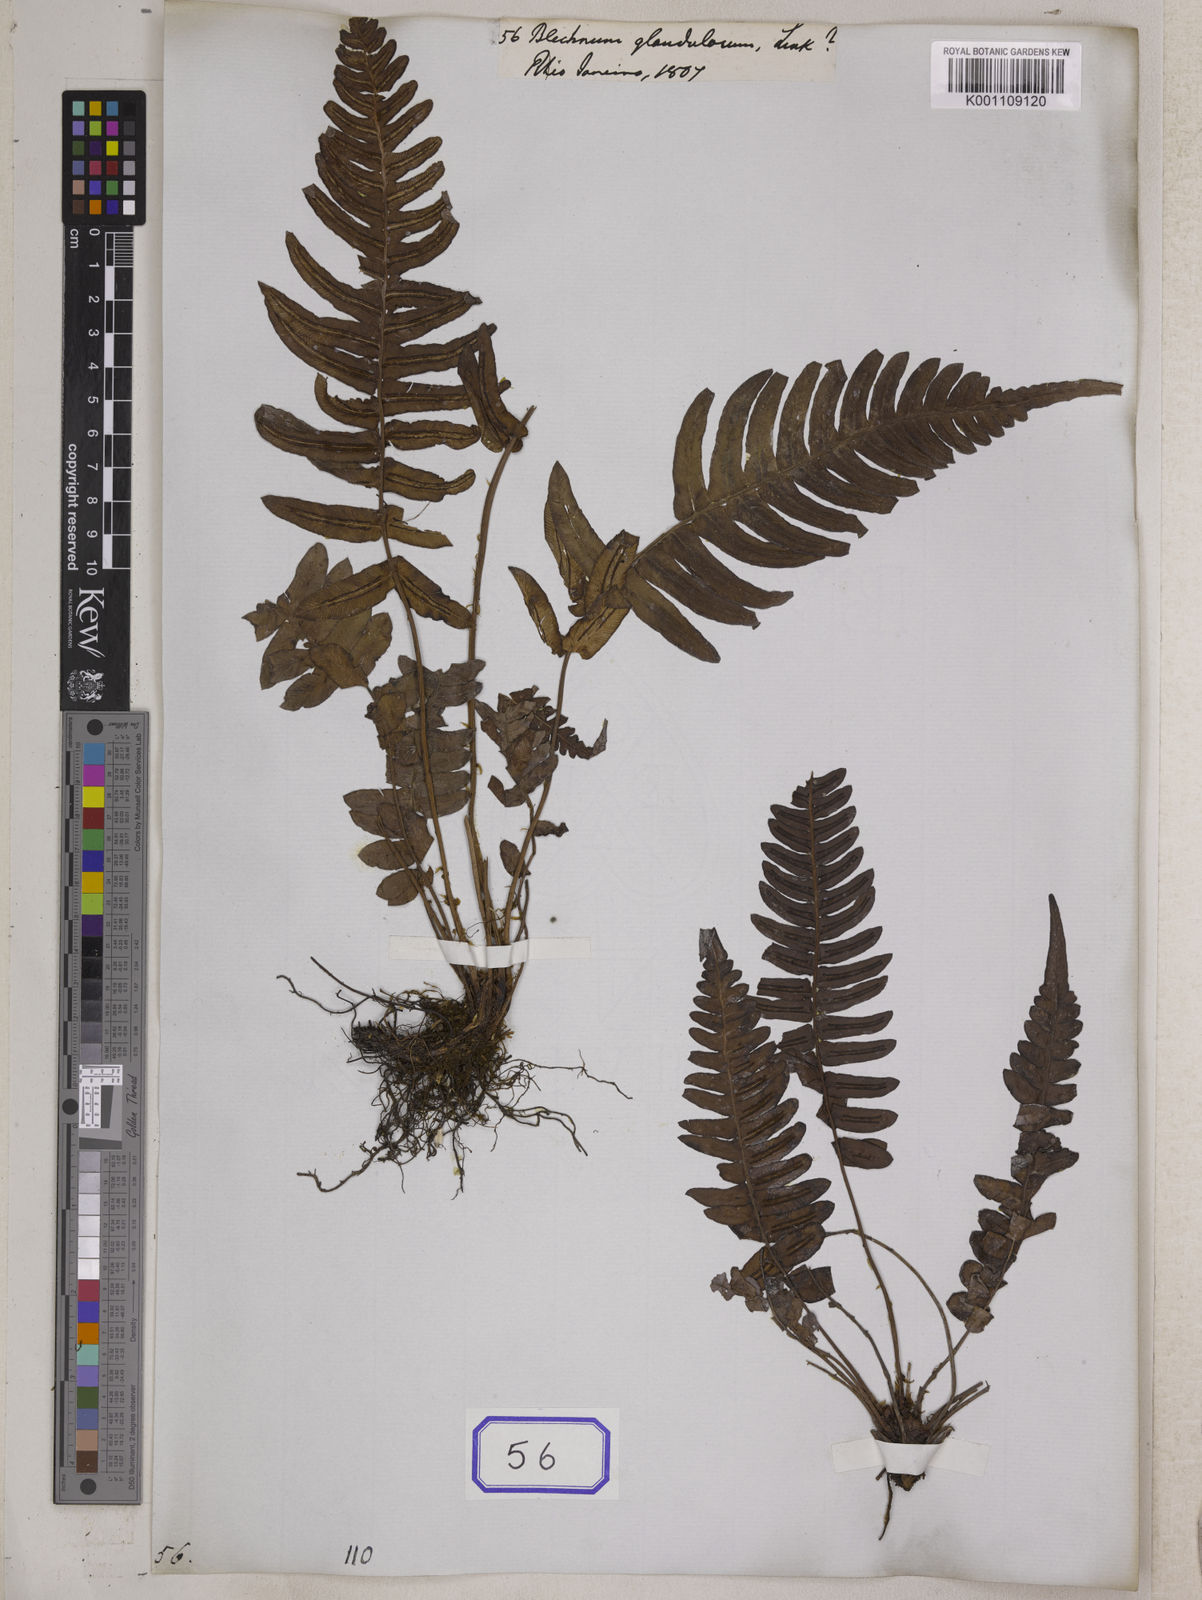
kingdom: Plantae
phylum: Tracheophyta
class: Polypodiopsida
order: Polypodiales
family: Blechnaceae
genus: Blechnum
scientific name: Blechnum appendiculatum
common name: Palm fern
